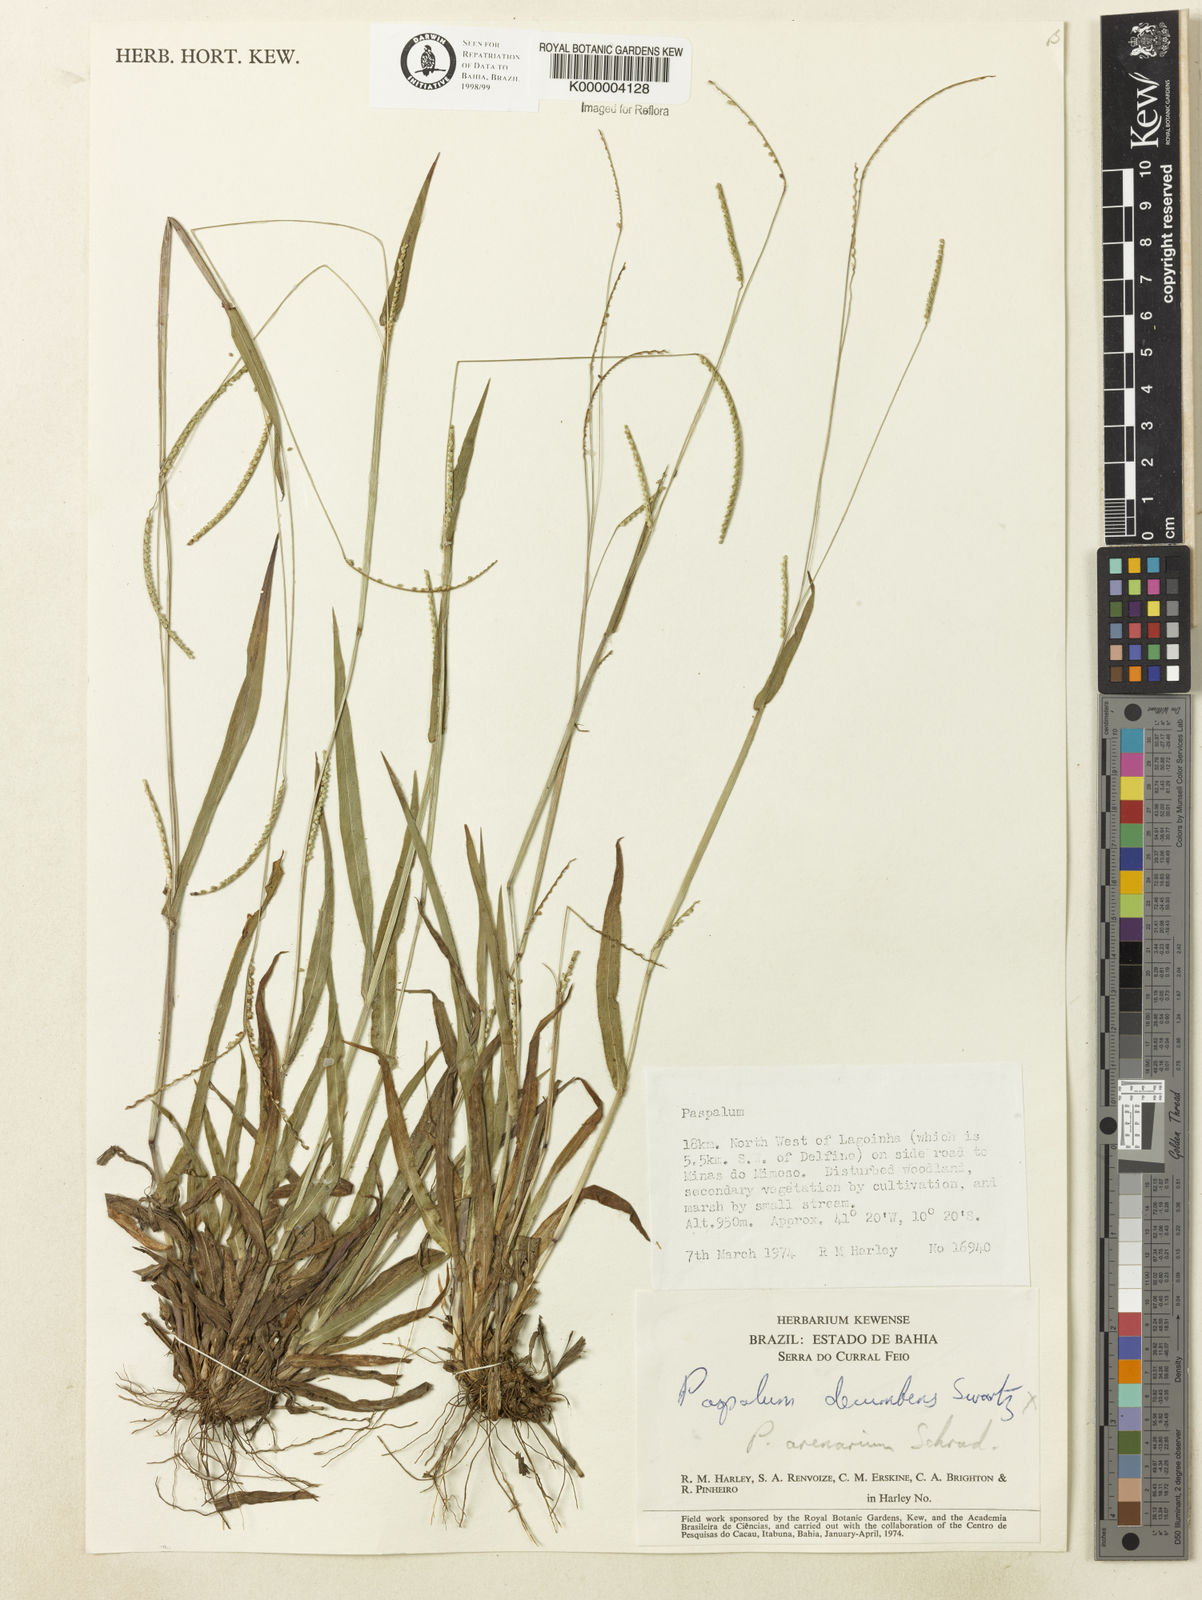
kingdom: Plantae
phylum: Tracheophyta
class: Liliopsida
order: Poales
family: Poaceae
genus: Paspalum
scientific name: Paspalum arenarium
